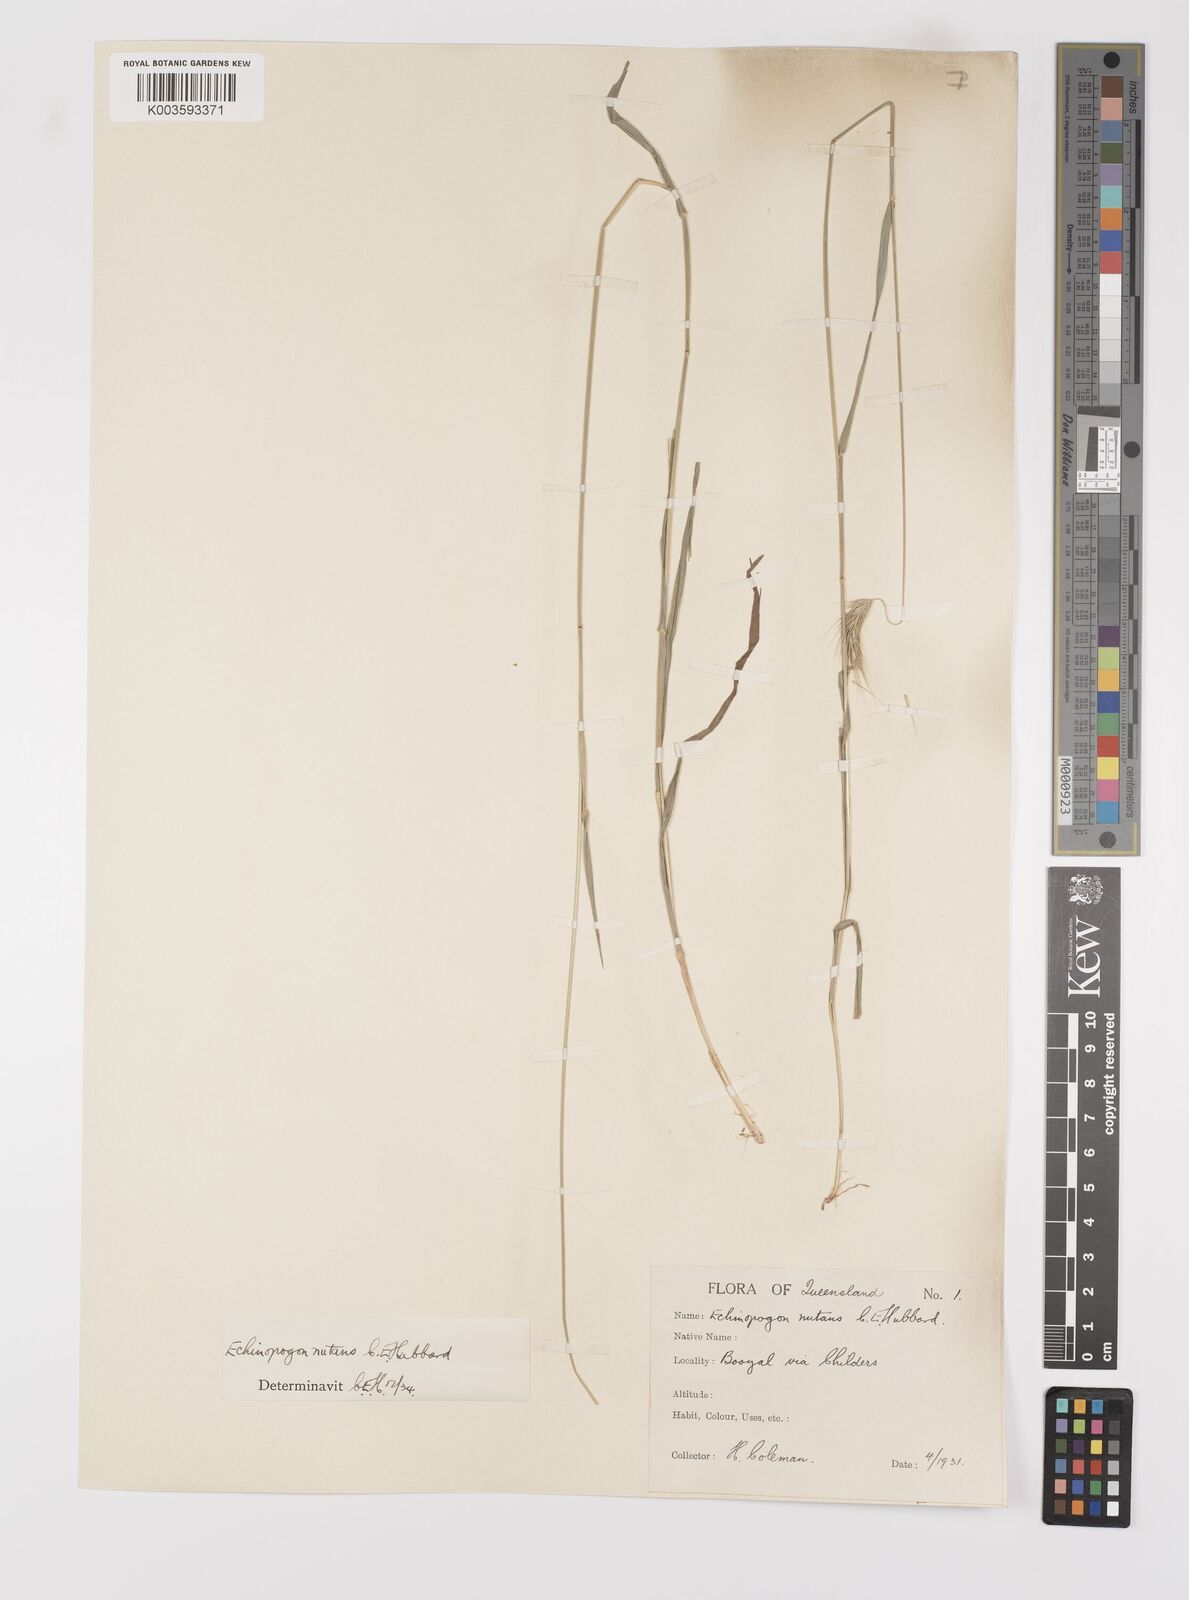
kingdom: Plantae
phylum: Tracheophyta
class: Liliopsida
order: Poales
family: Poaceae
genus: Echinopogon
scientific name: Echinopogon nutans
